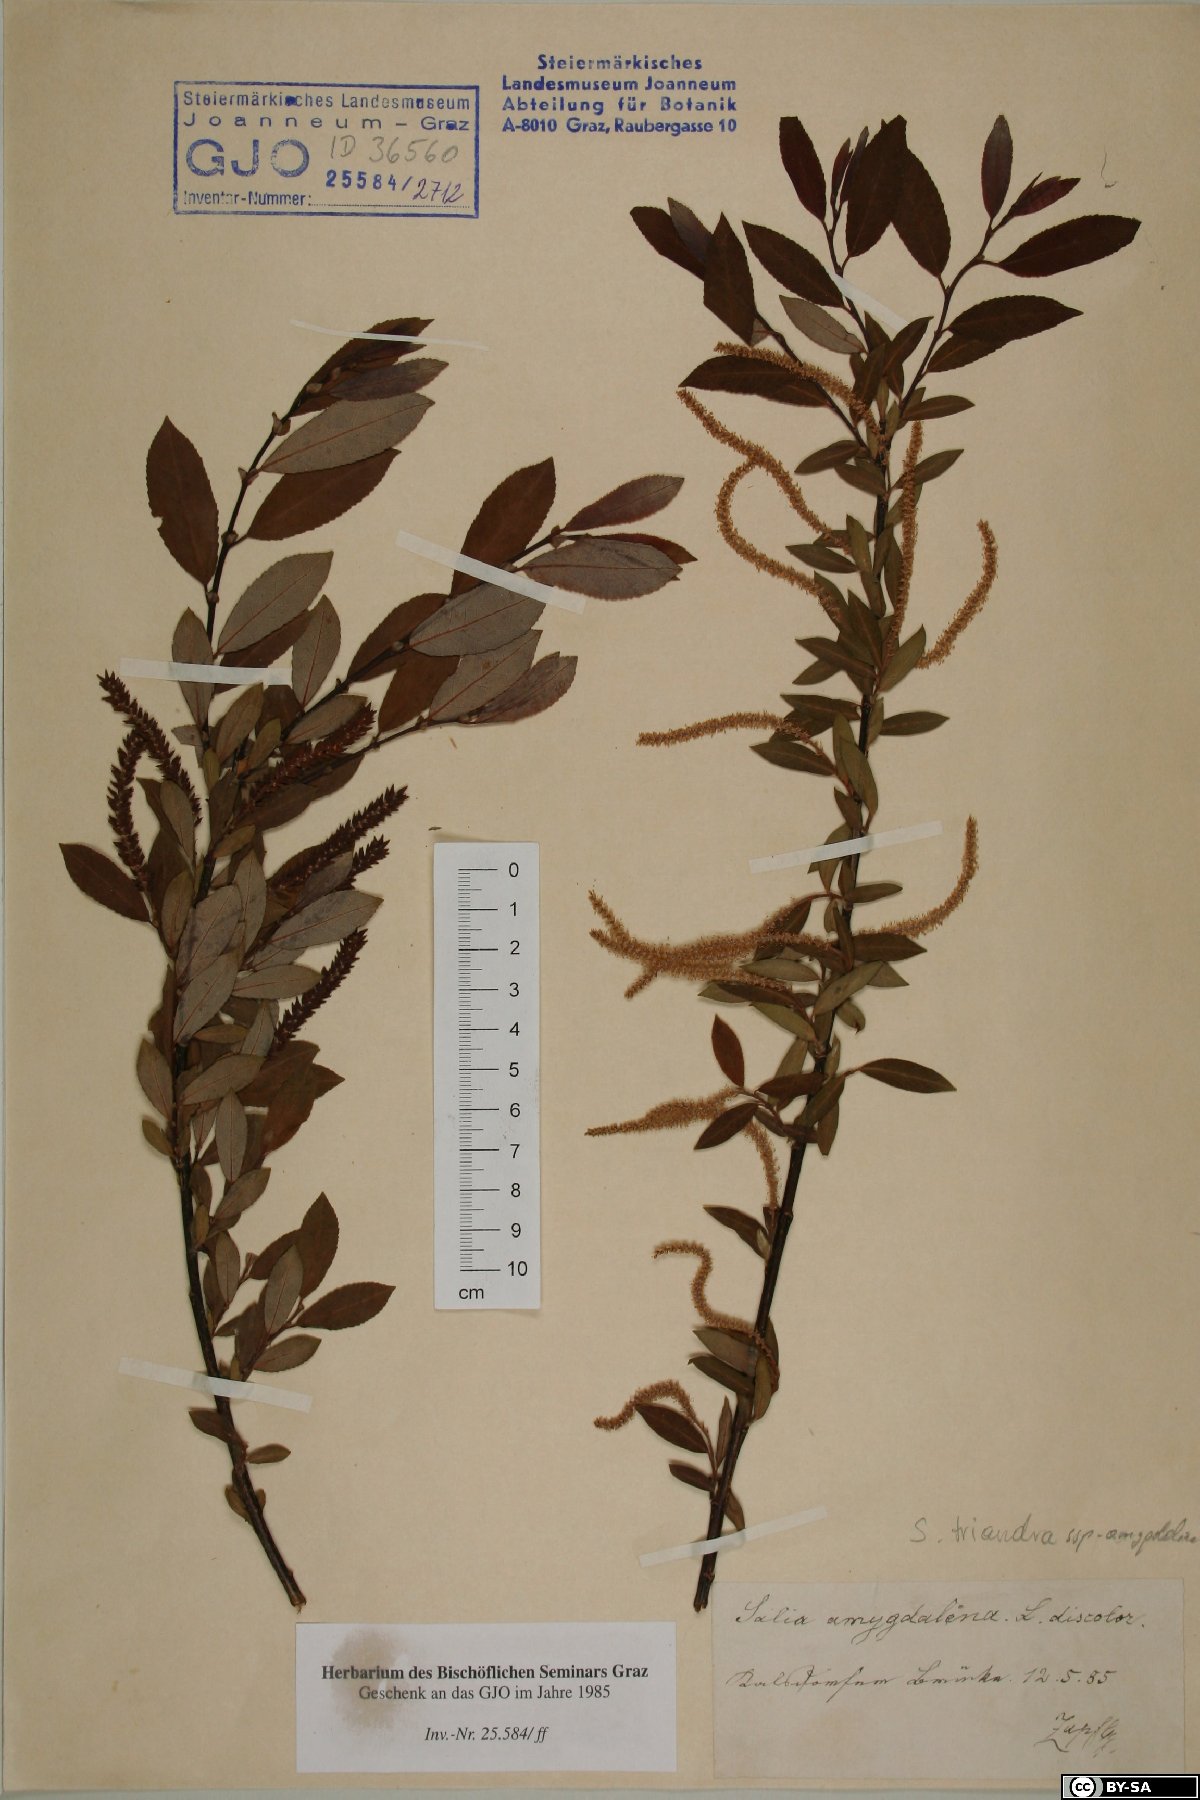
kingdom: Plantae
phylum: Tracheophyta
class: Magnoliopsida
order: Malpighiales
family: Salicaceae
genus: Salix
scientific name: Salix triandra
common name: Almond willow
